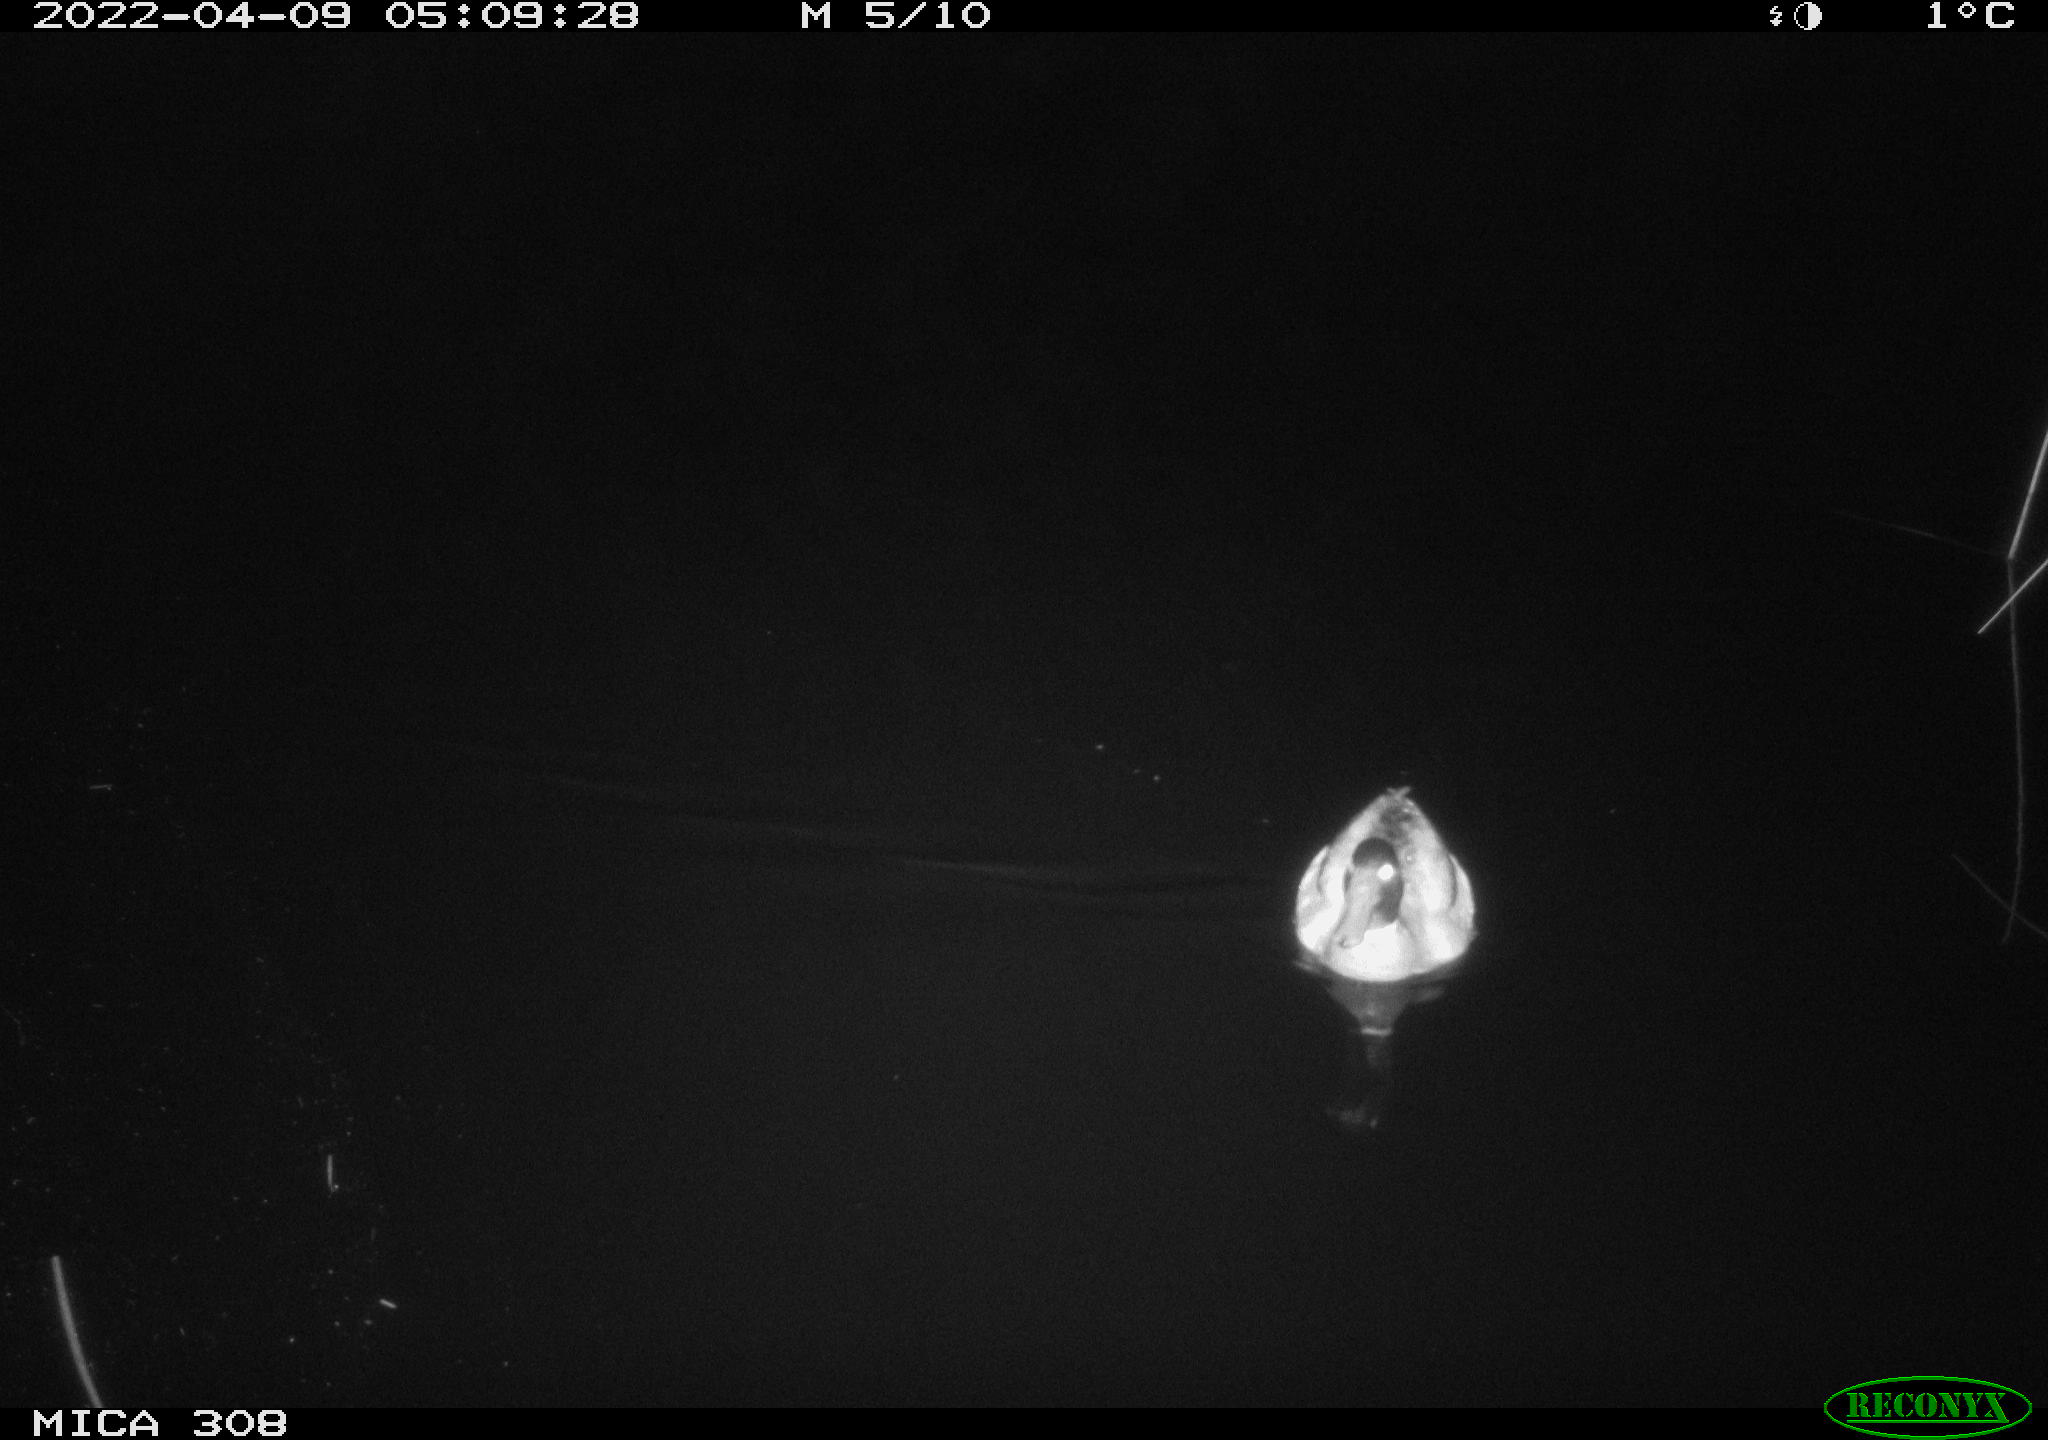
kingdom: Animalia
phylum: Chordata
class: Aves
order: Anseriformes
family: Anatidae
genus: Anas
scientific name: Anas platyrhynchos
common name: Mallard
